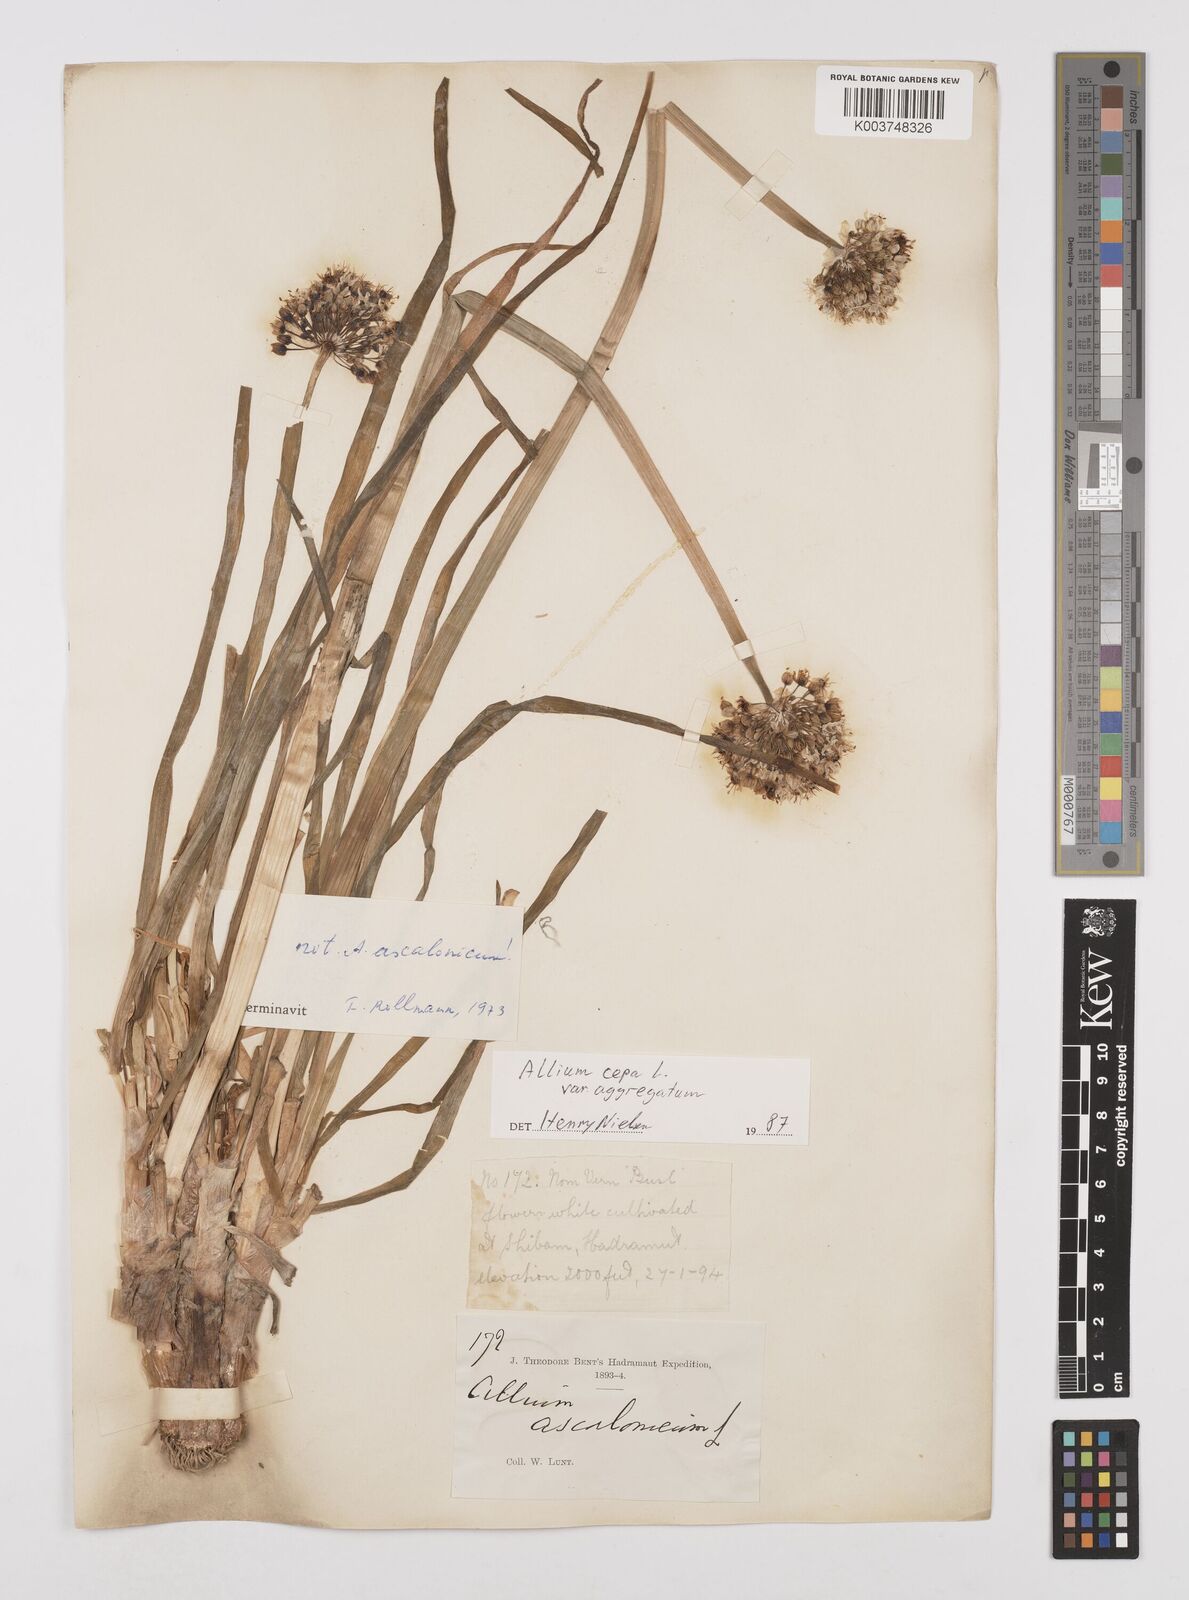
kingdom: Plantae
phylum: Tracheophyta
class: Liliopsida
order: Asparagales
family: Amaryllidaceae
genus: Allium
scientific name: Allium cepa
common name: Onion
